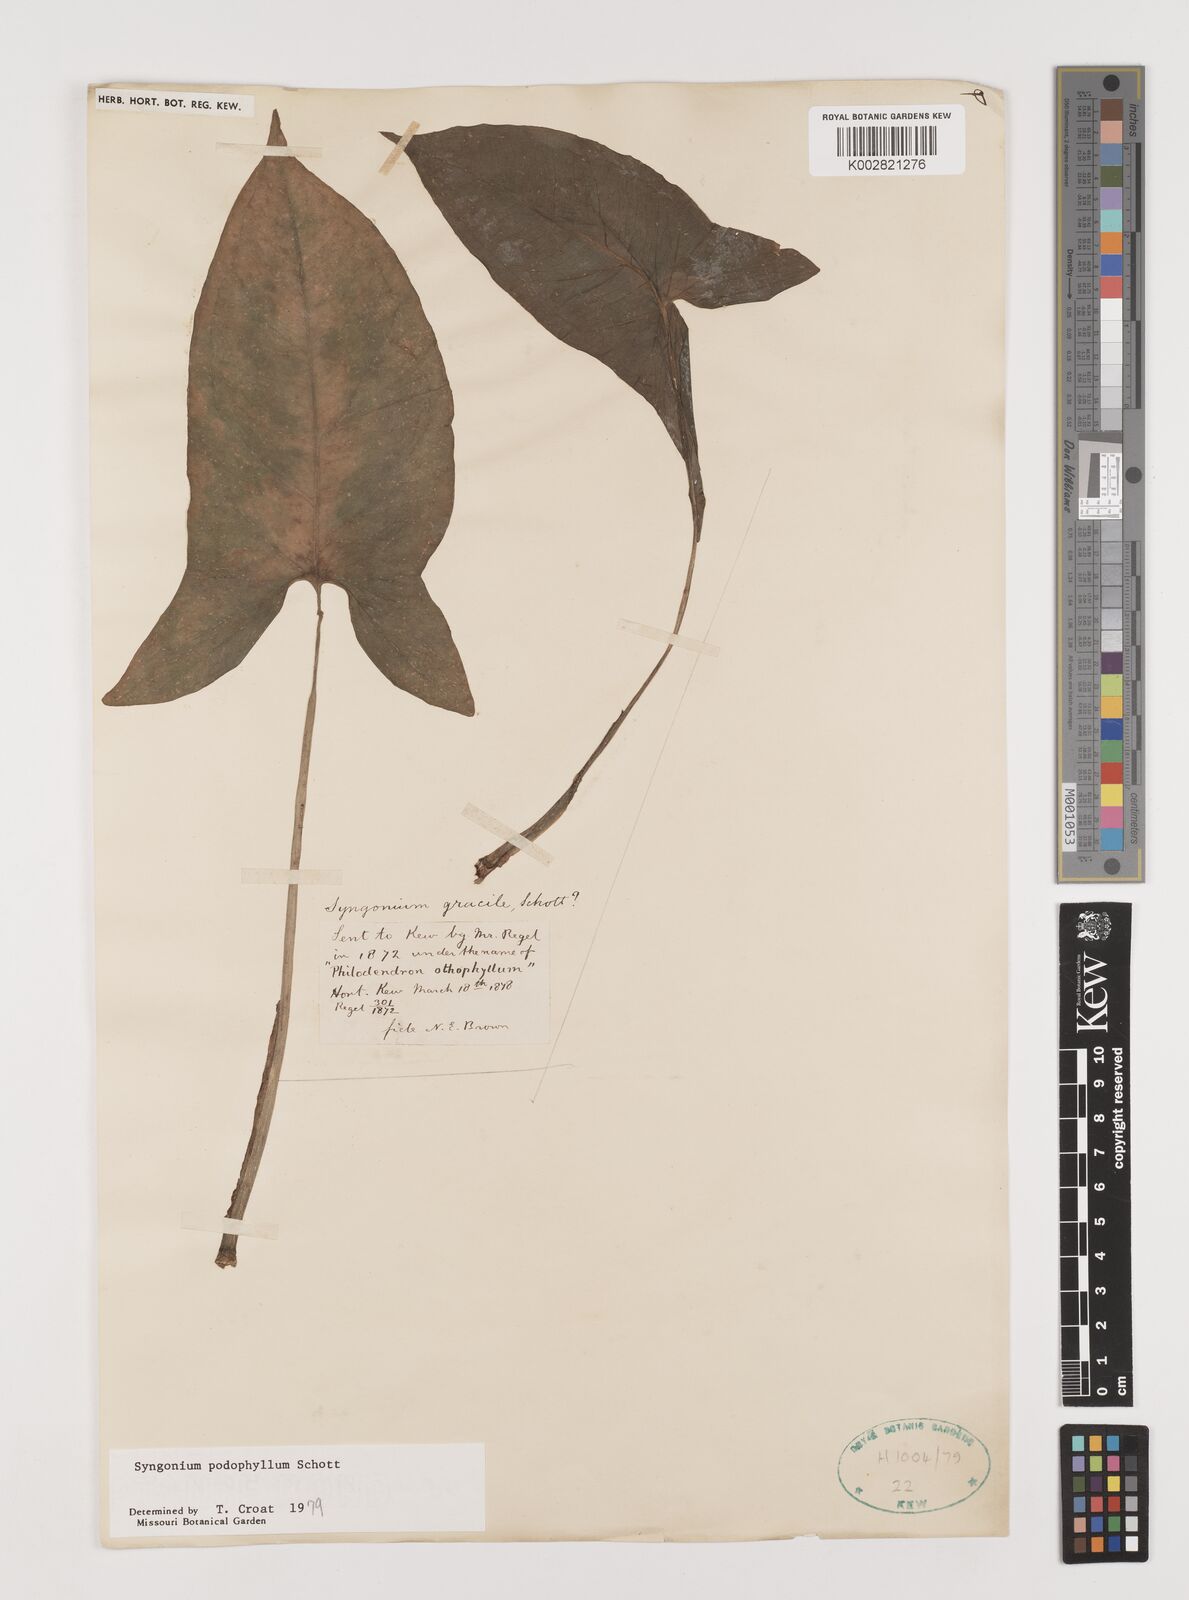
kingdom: Plantae
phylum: Tracheophyta
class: Liliopsida
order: Alismatales
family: Araceae
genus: Syngonium
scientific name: Syngonium podophyllum
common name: American evergreen
